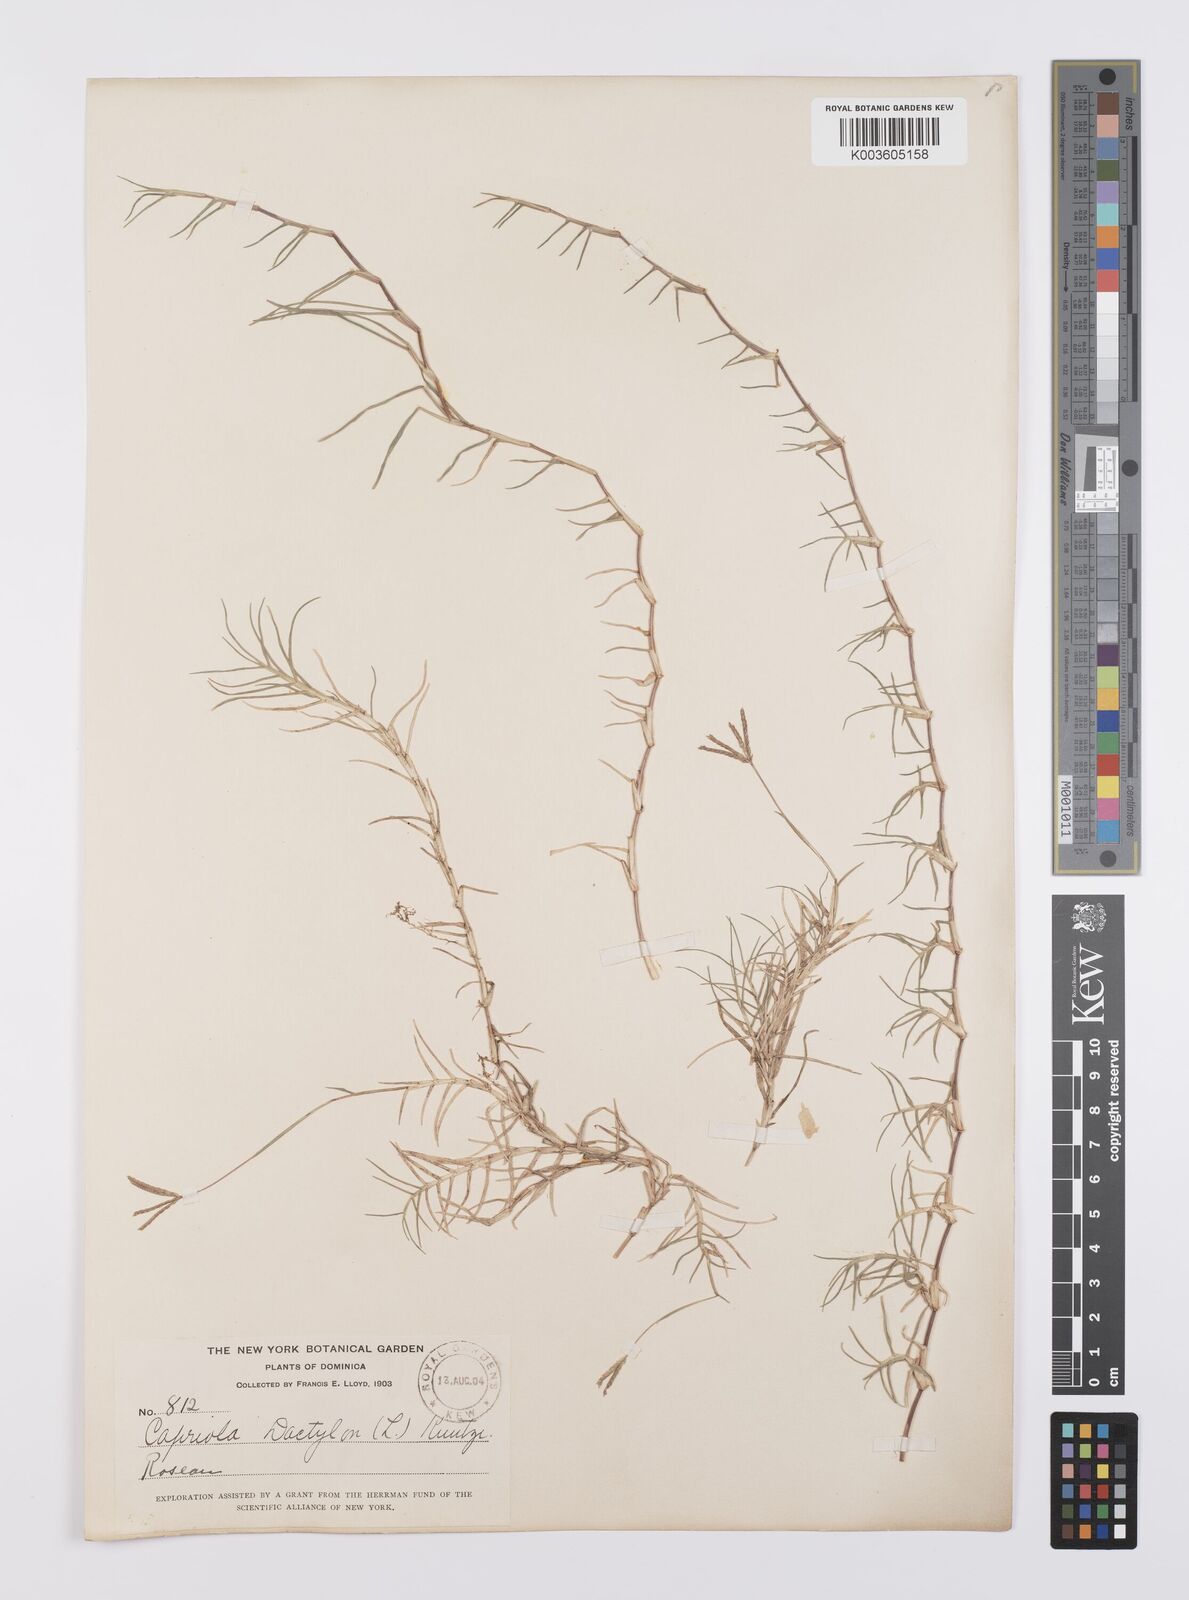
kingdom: Plantae
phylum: Tracheophyta
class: Liliopsida
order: Poales
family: Poaceae
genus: Cynodon
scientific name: Cynodon dactylon
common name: Bermuda grass
